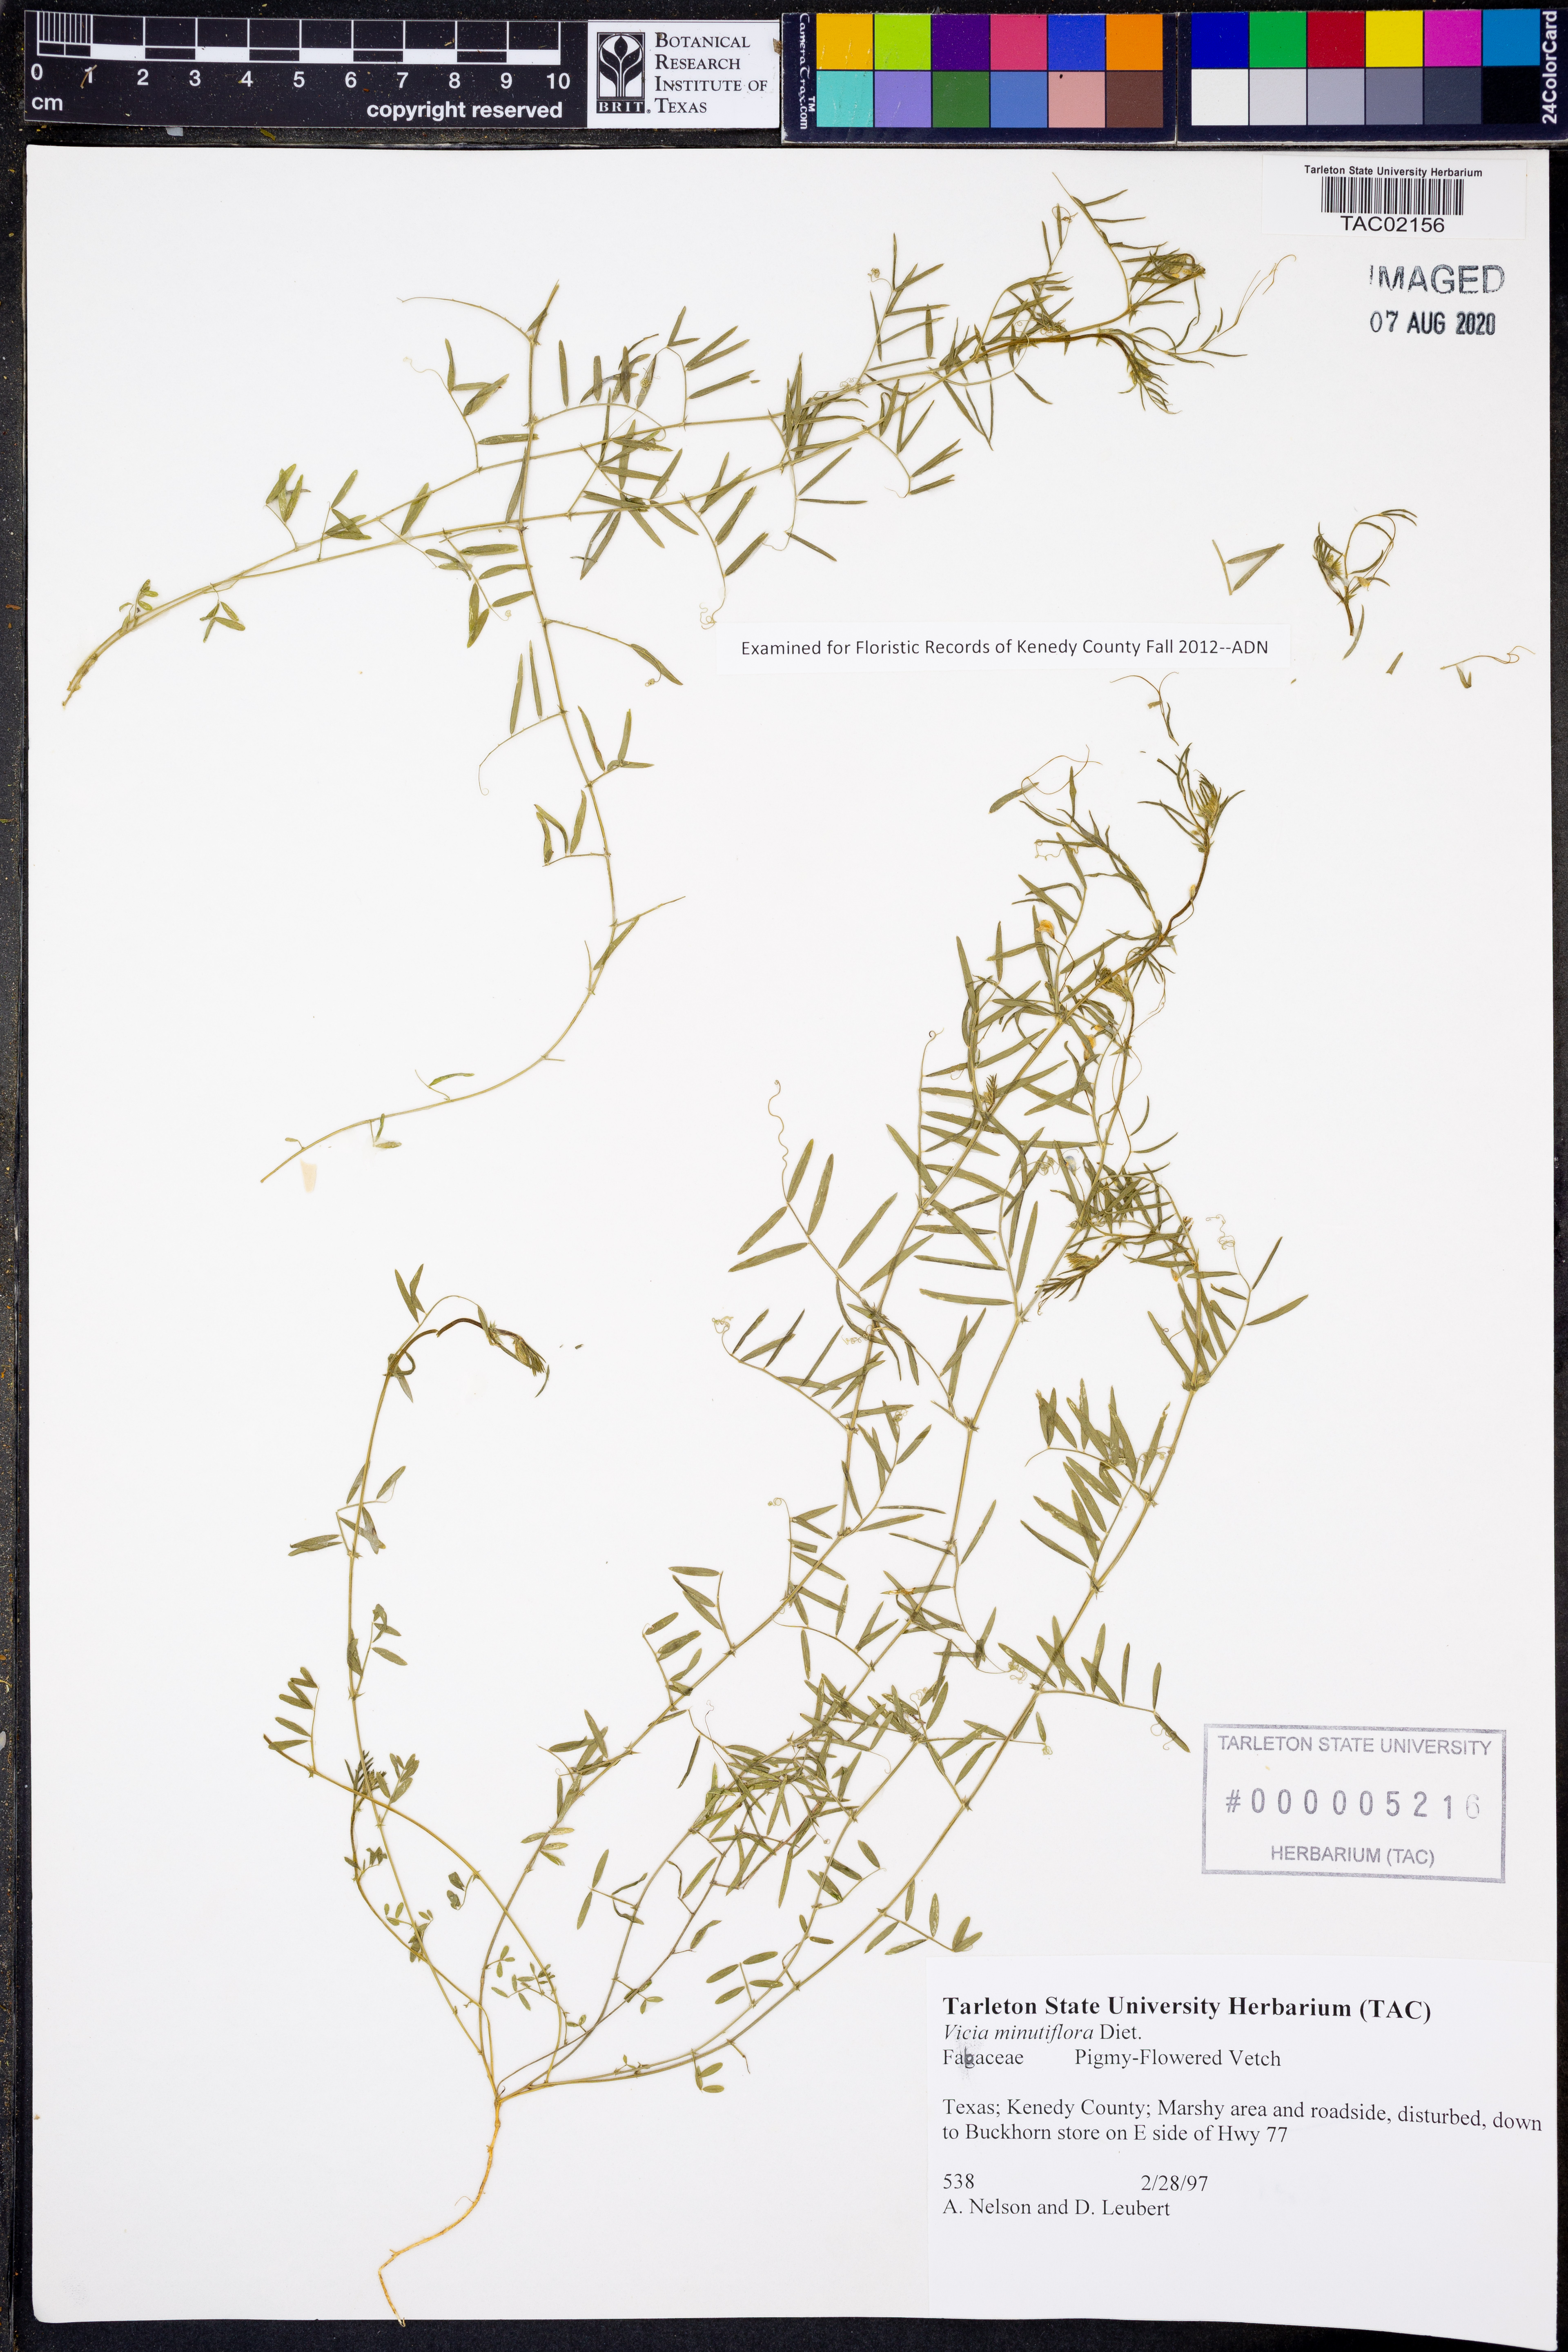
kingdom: Plantae
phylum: Tracheophyta
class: Magnoliopsida
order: Fabales
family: Fabaceae
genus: Vicia
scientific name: Vicia minutiflora
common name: Pygmy-flower vetch
